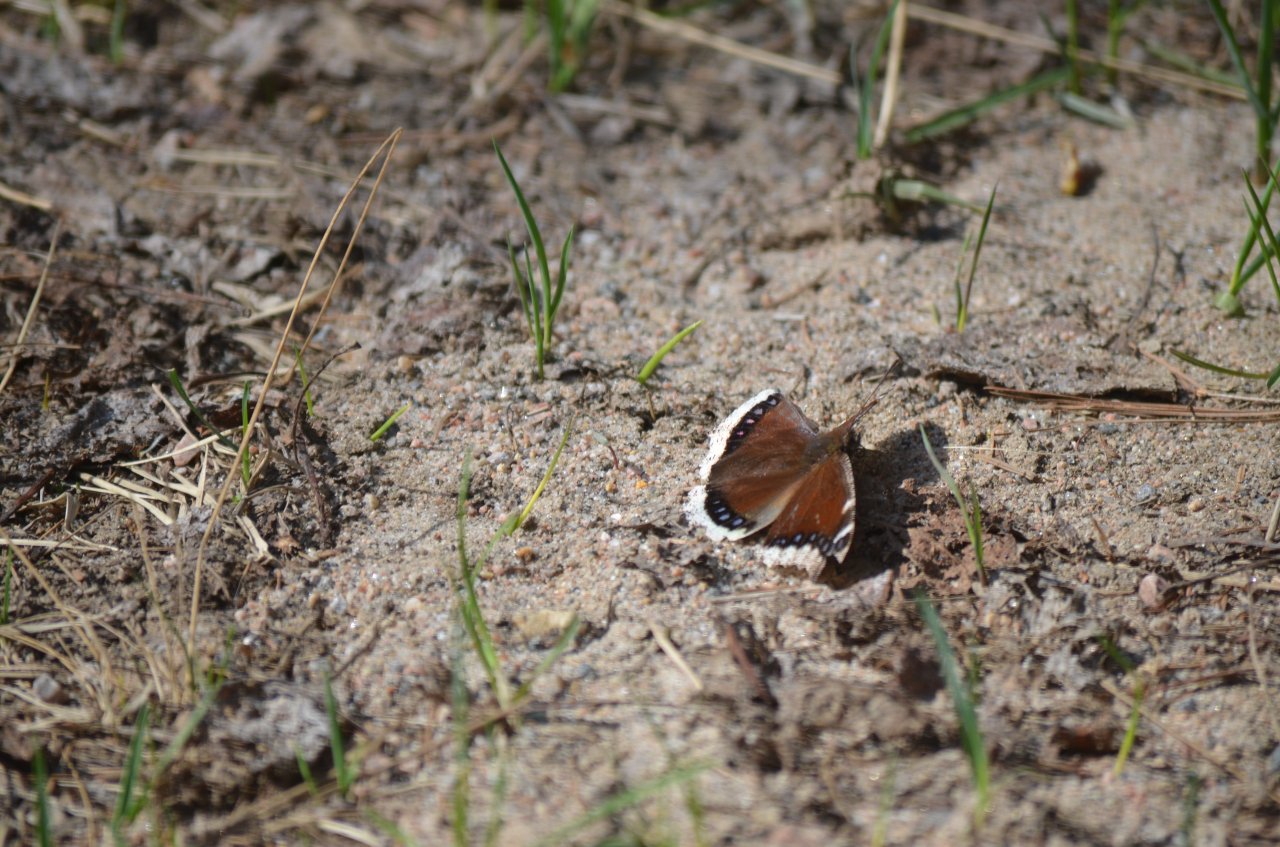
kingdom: Animalia
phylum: Arthropoda
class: Insecta
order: Lepidoptera
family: Nymphalidae
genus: Nymphalis
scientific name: Nymphalis antiopa
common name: Mourning Cloak
